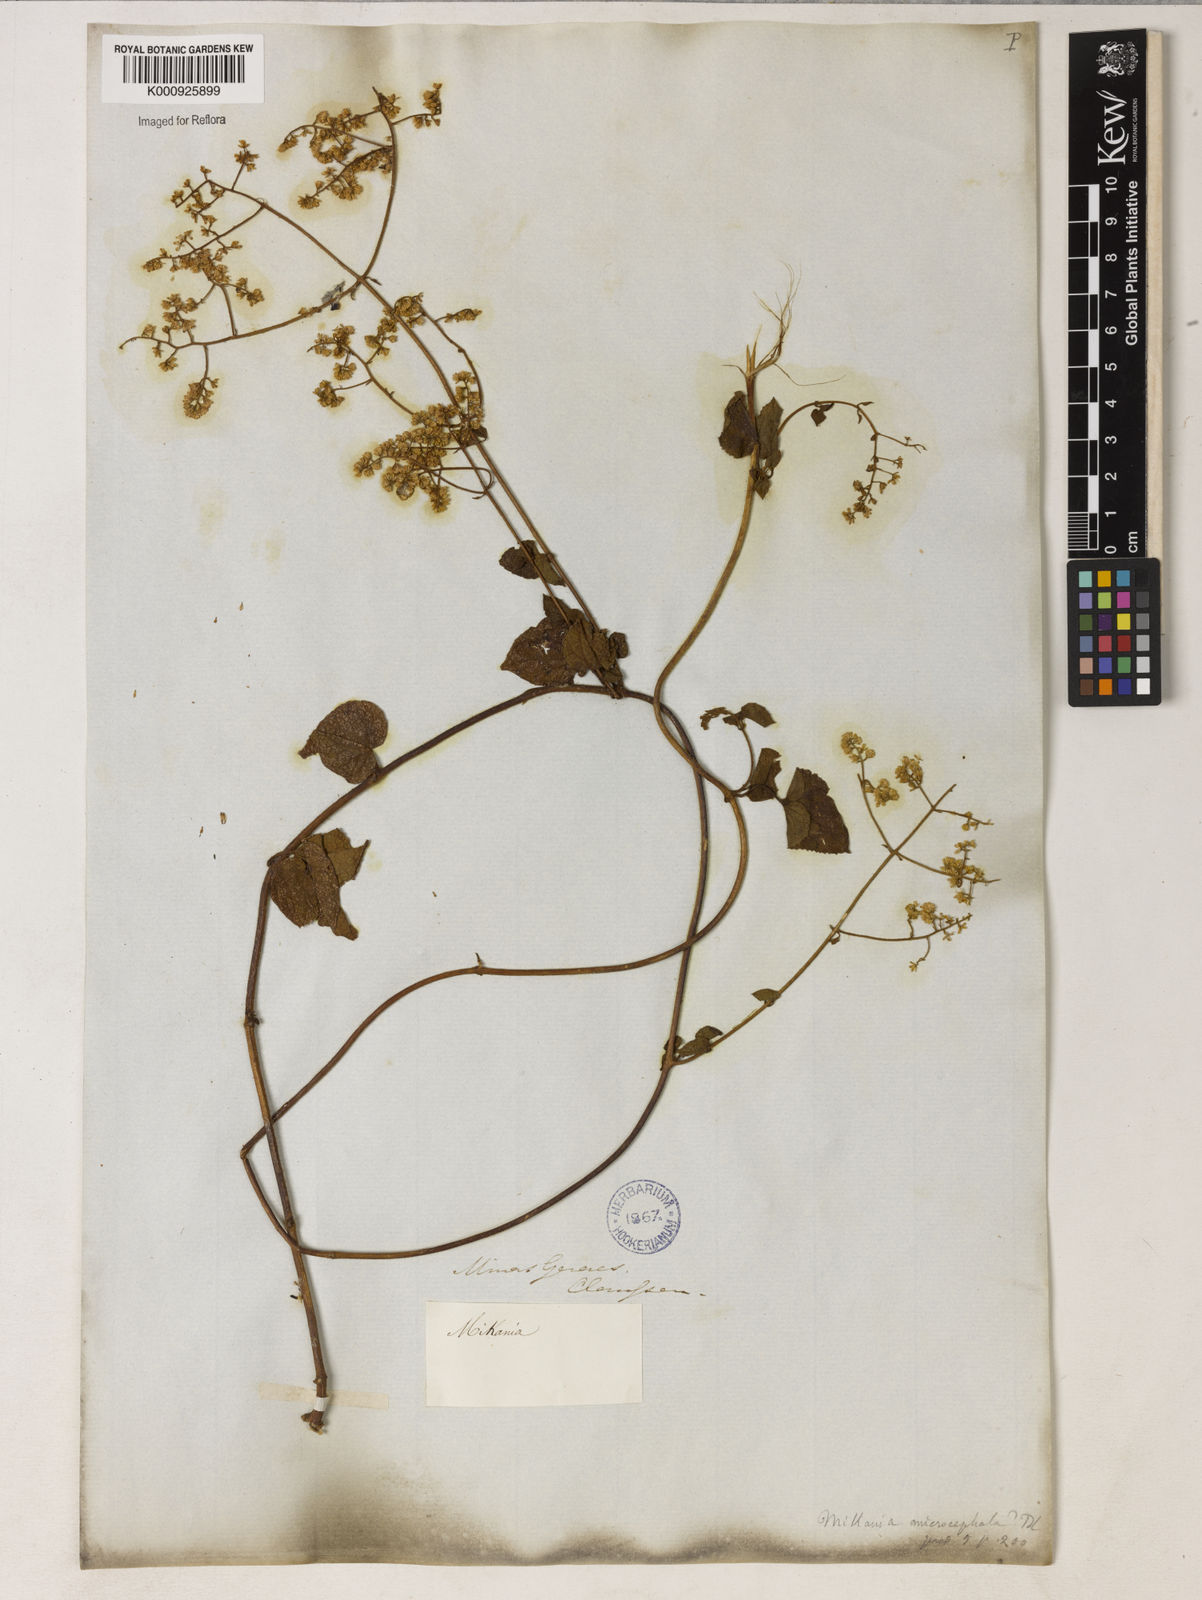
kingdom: Plantae
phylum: Tracheophyta
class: Magnoliopsida
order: Asterales
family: Asteraceae
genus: Mikania
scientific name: Mikania microcephala
